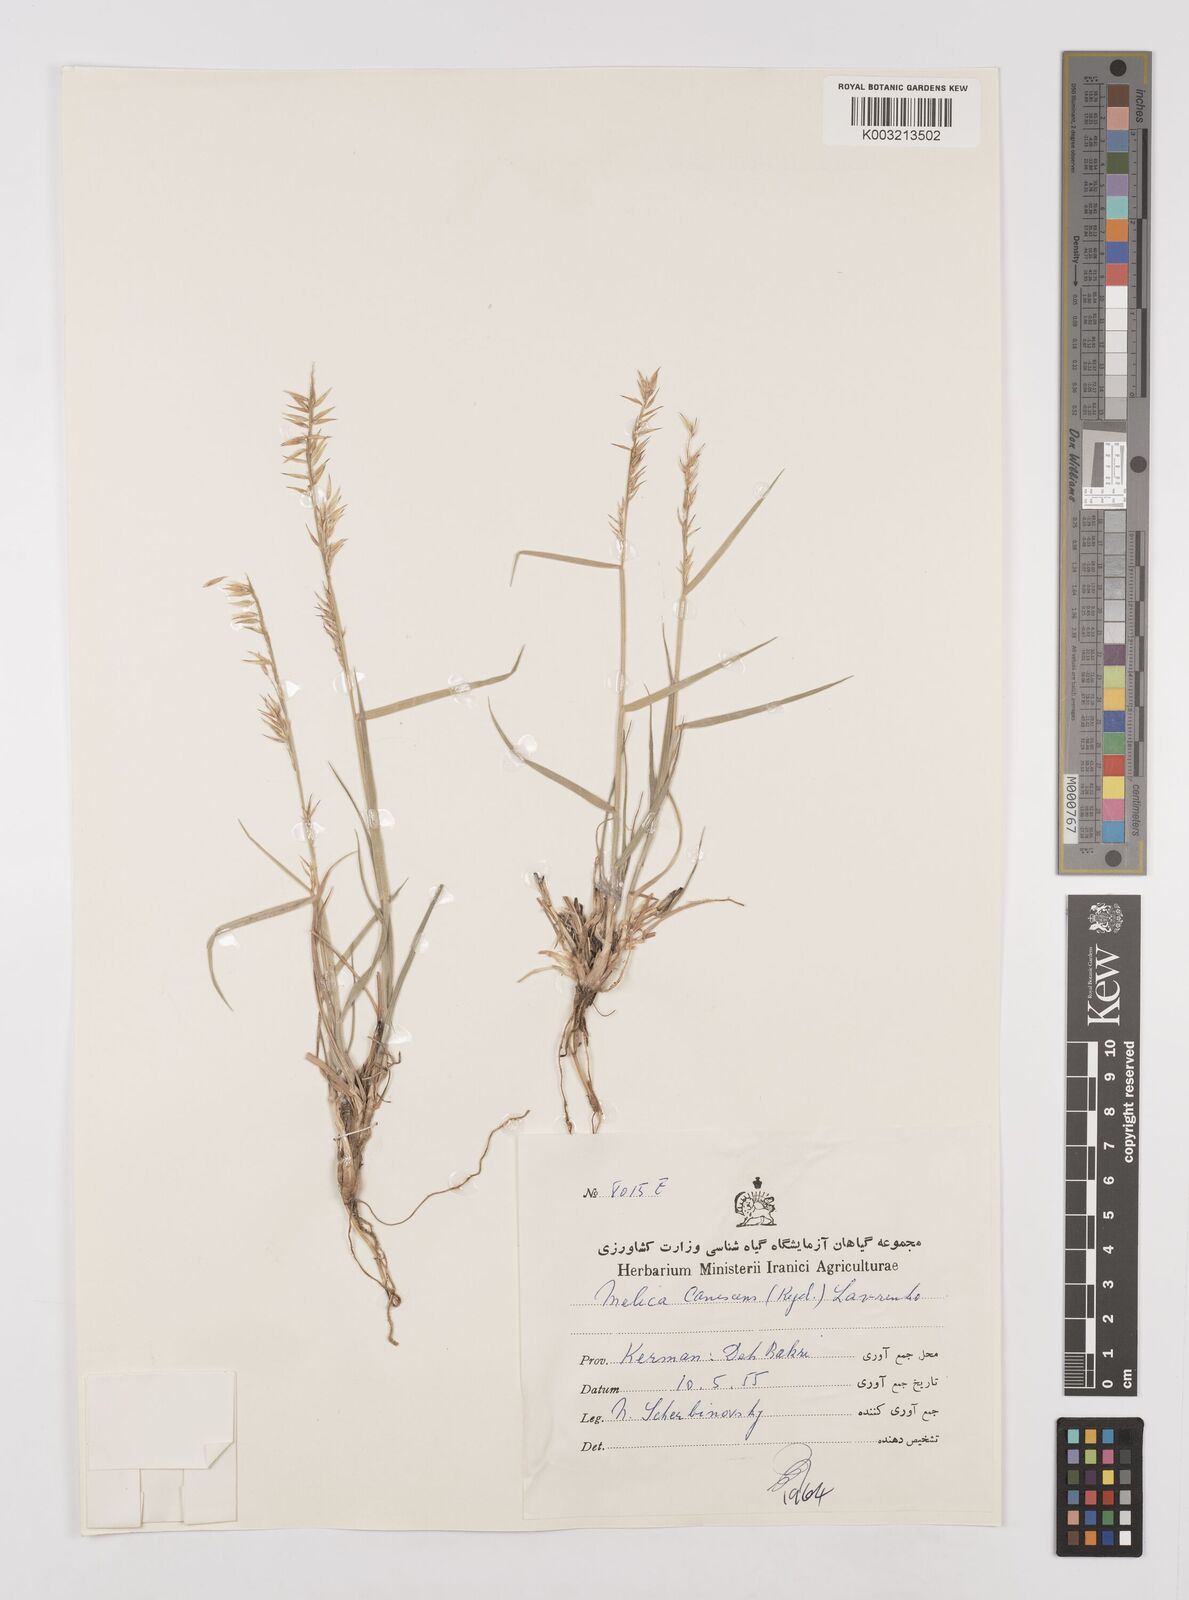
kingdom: Plantae
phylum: Tracheophyta
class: Liliopsida
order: Poales
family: Poaceae
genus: Melica
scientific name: Melica persica
